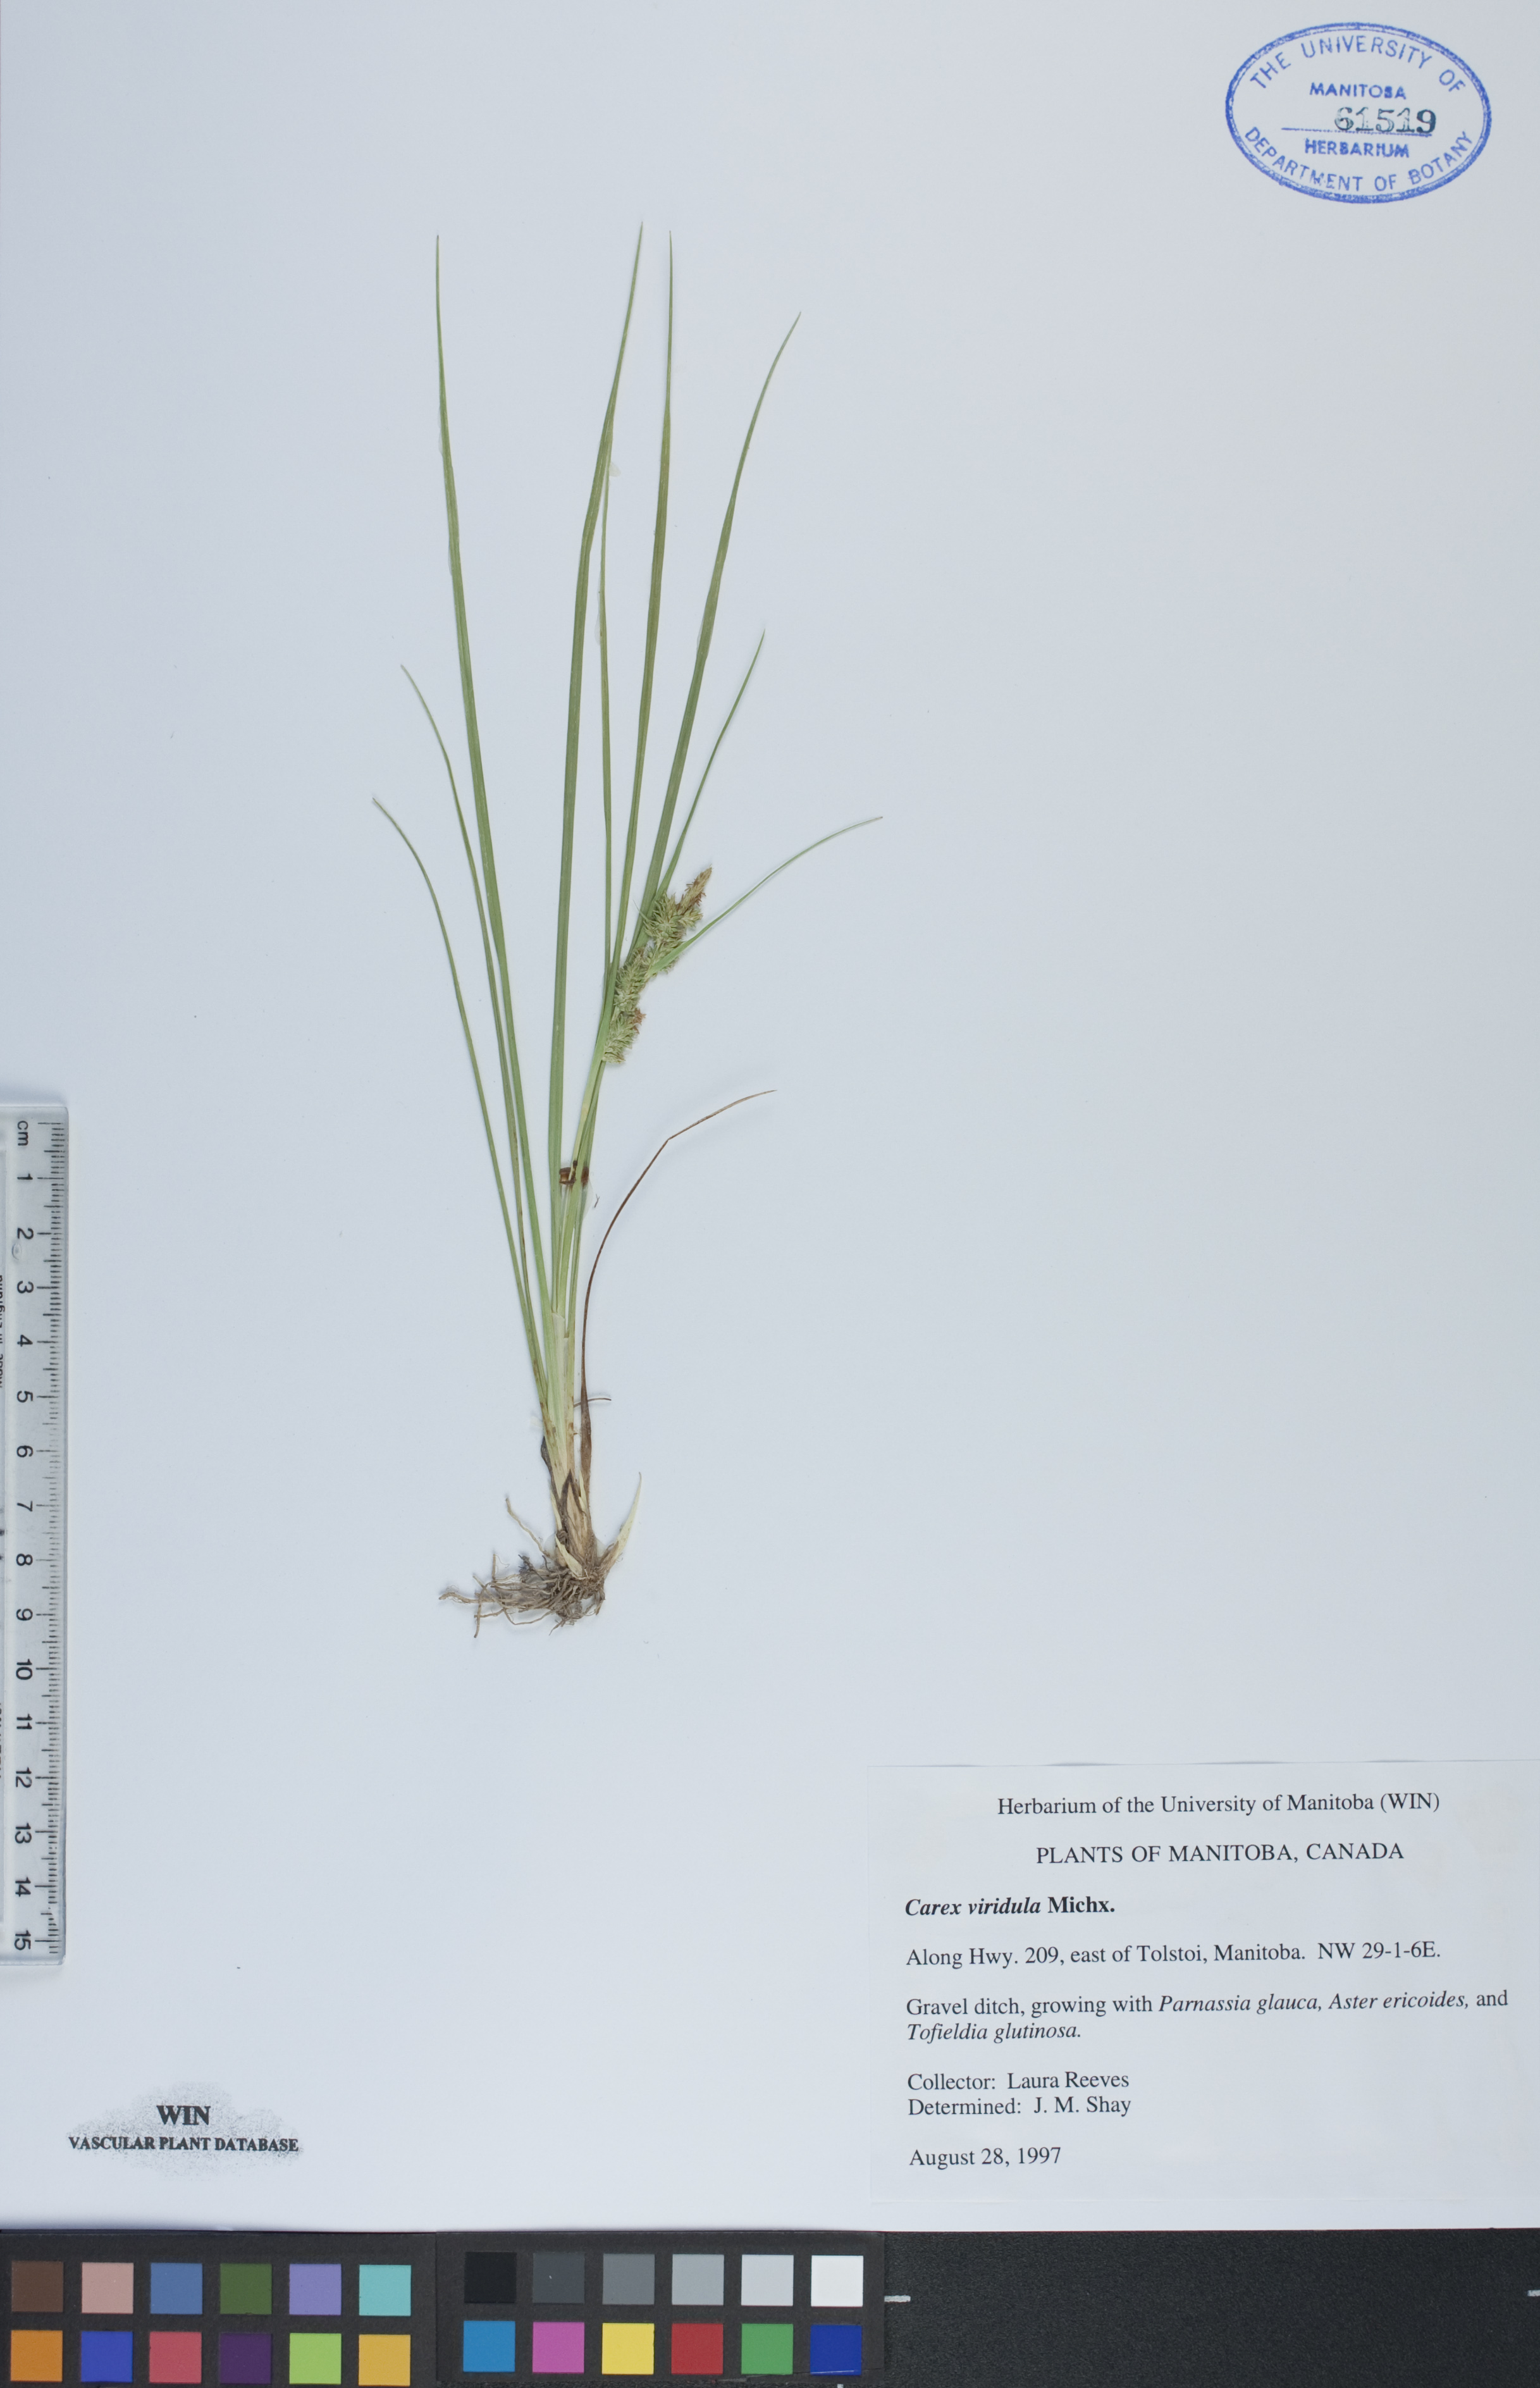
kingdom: Plantae
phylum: Tracheophyta
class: Liliopsida
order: Poales
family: Cyperaceae
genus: Carex
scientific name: Carex oederi
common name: Common & small-fruited yellow-sedge
